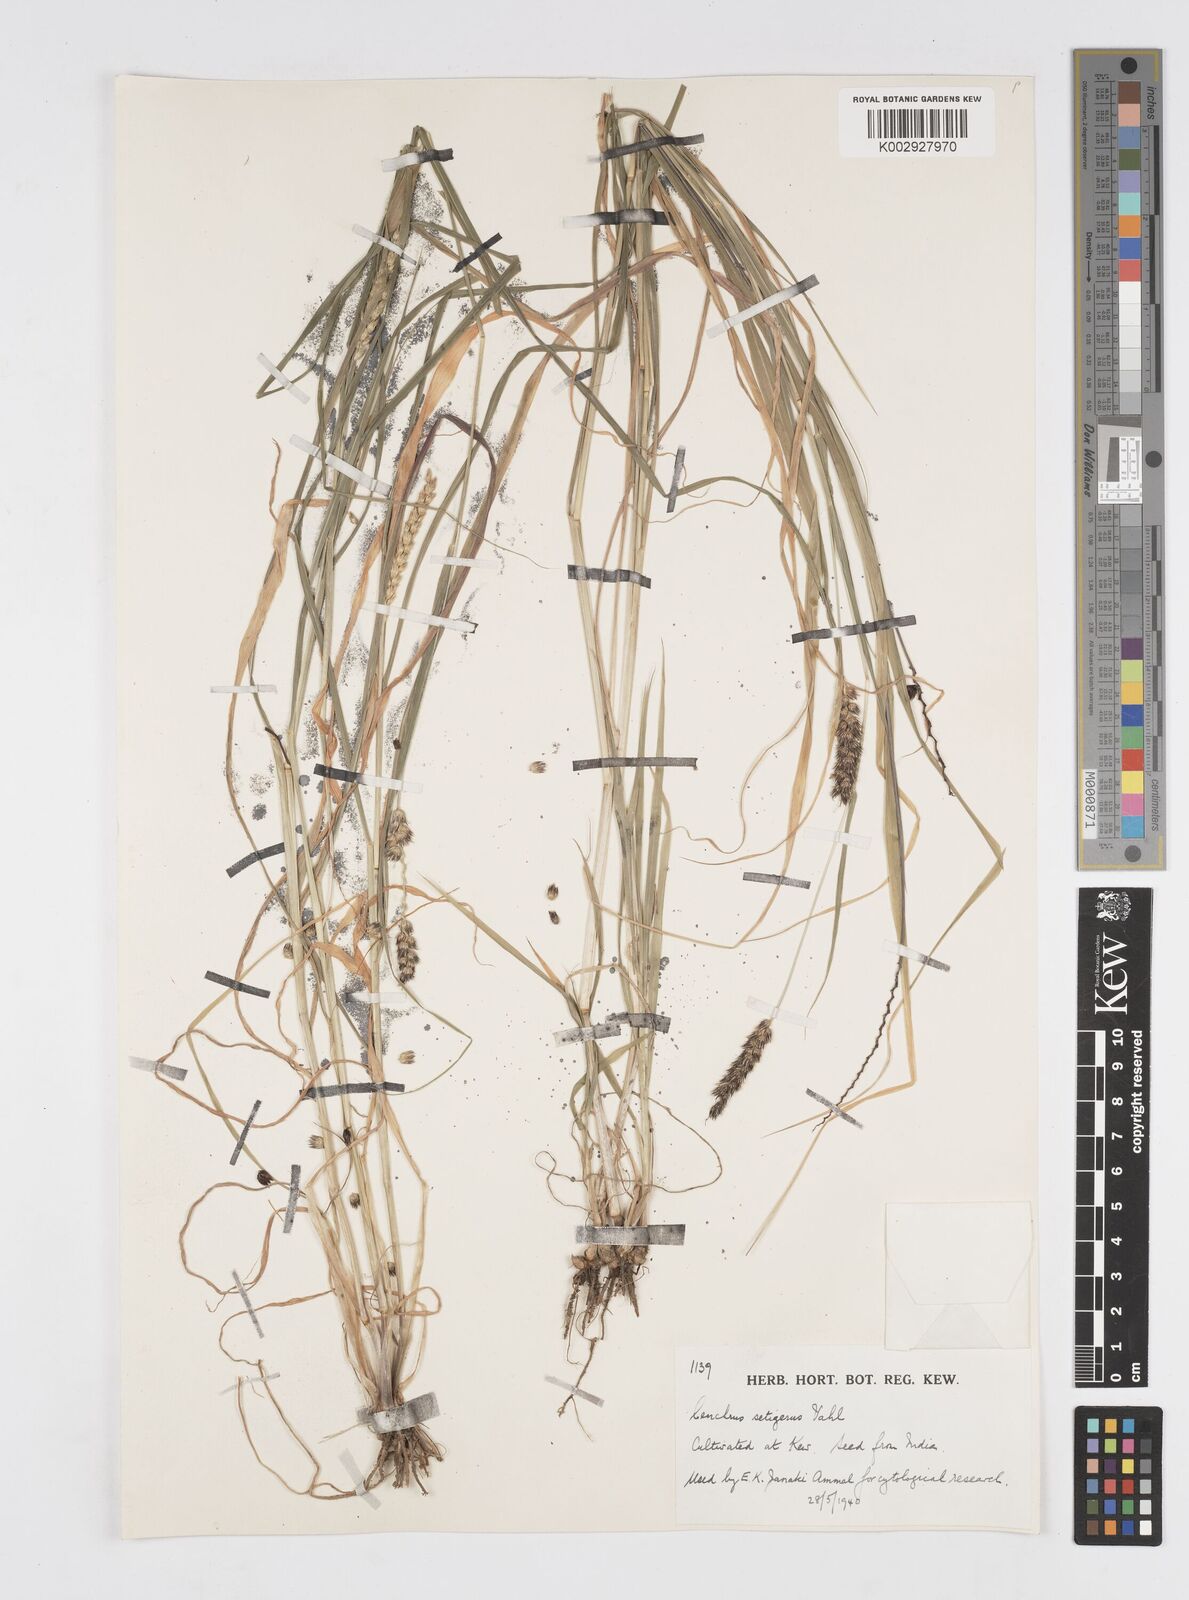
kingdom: Plantae
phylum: Tracheophyta
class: Liliopsida
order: Poales
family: Poaceae
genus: Cenchrus
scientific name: Cenchrus setigerus
